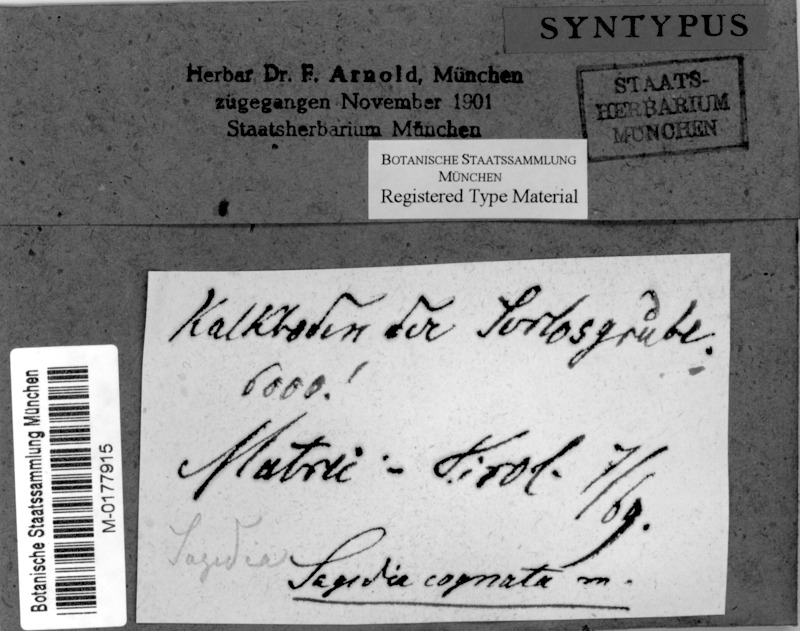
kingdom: Fungi
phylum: Ascomycota
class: Dothideomycetes
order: Dothideales
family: Saccotheciaceae
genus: Metasphaeria
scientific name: Metasphaeria cognata
